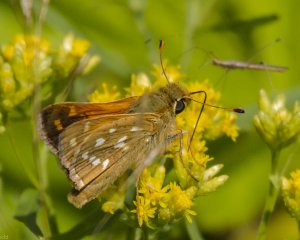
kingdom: Animalia
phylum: Arthropoda
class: Insecta
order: Lepidoptera
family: Hesperiidae
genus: Hesperia
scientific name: Hesperia comma
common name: Common Branded Skipper
